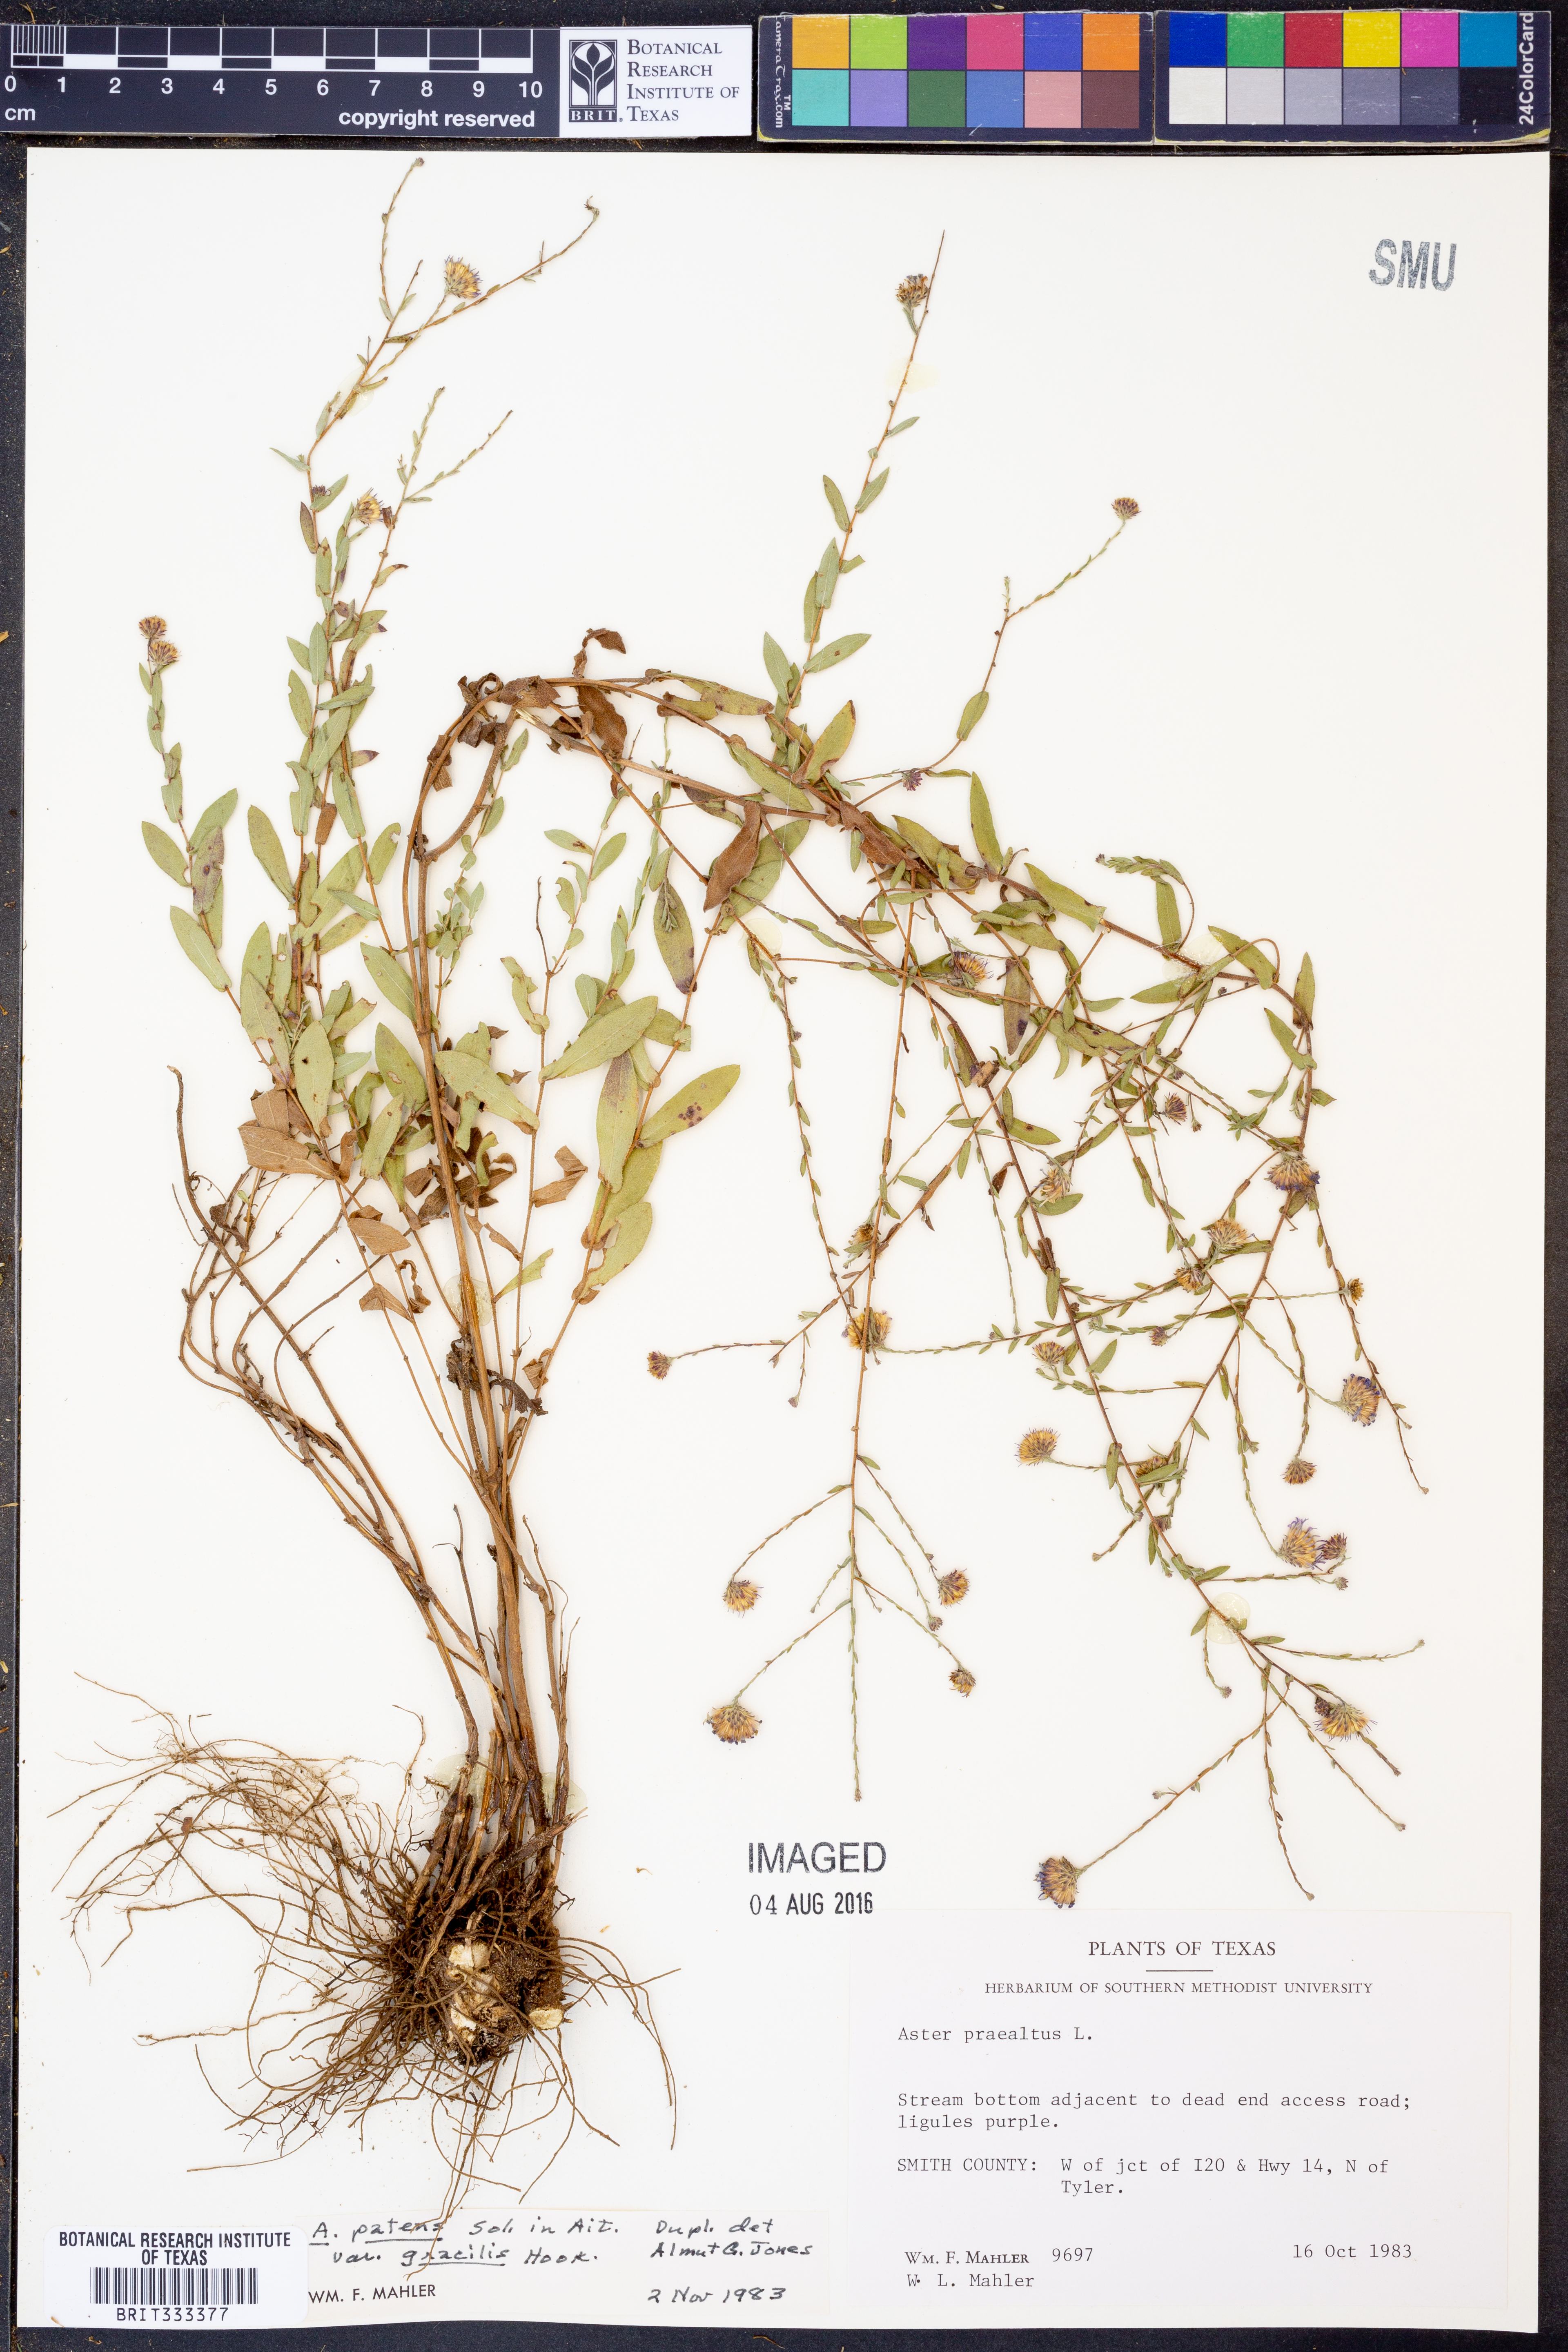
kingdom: Plantae
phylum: Tracheophyta
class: Magnoliopsida
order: Asterales
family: Asteraceae
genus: Symphyotrichum
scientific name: Symphyotrichum patens
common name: Late purple aster
